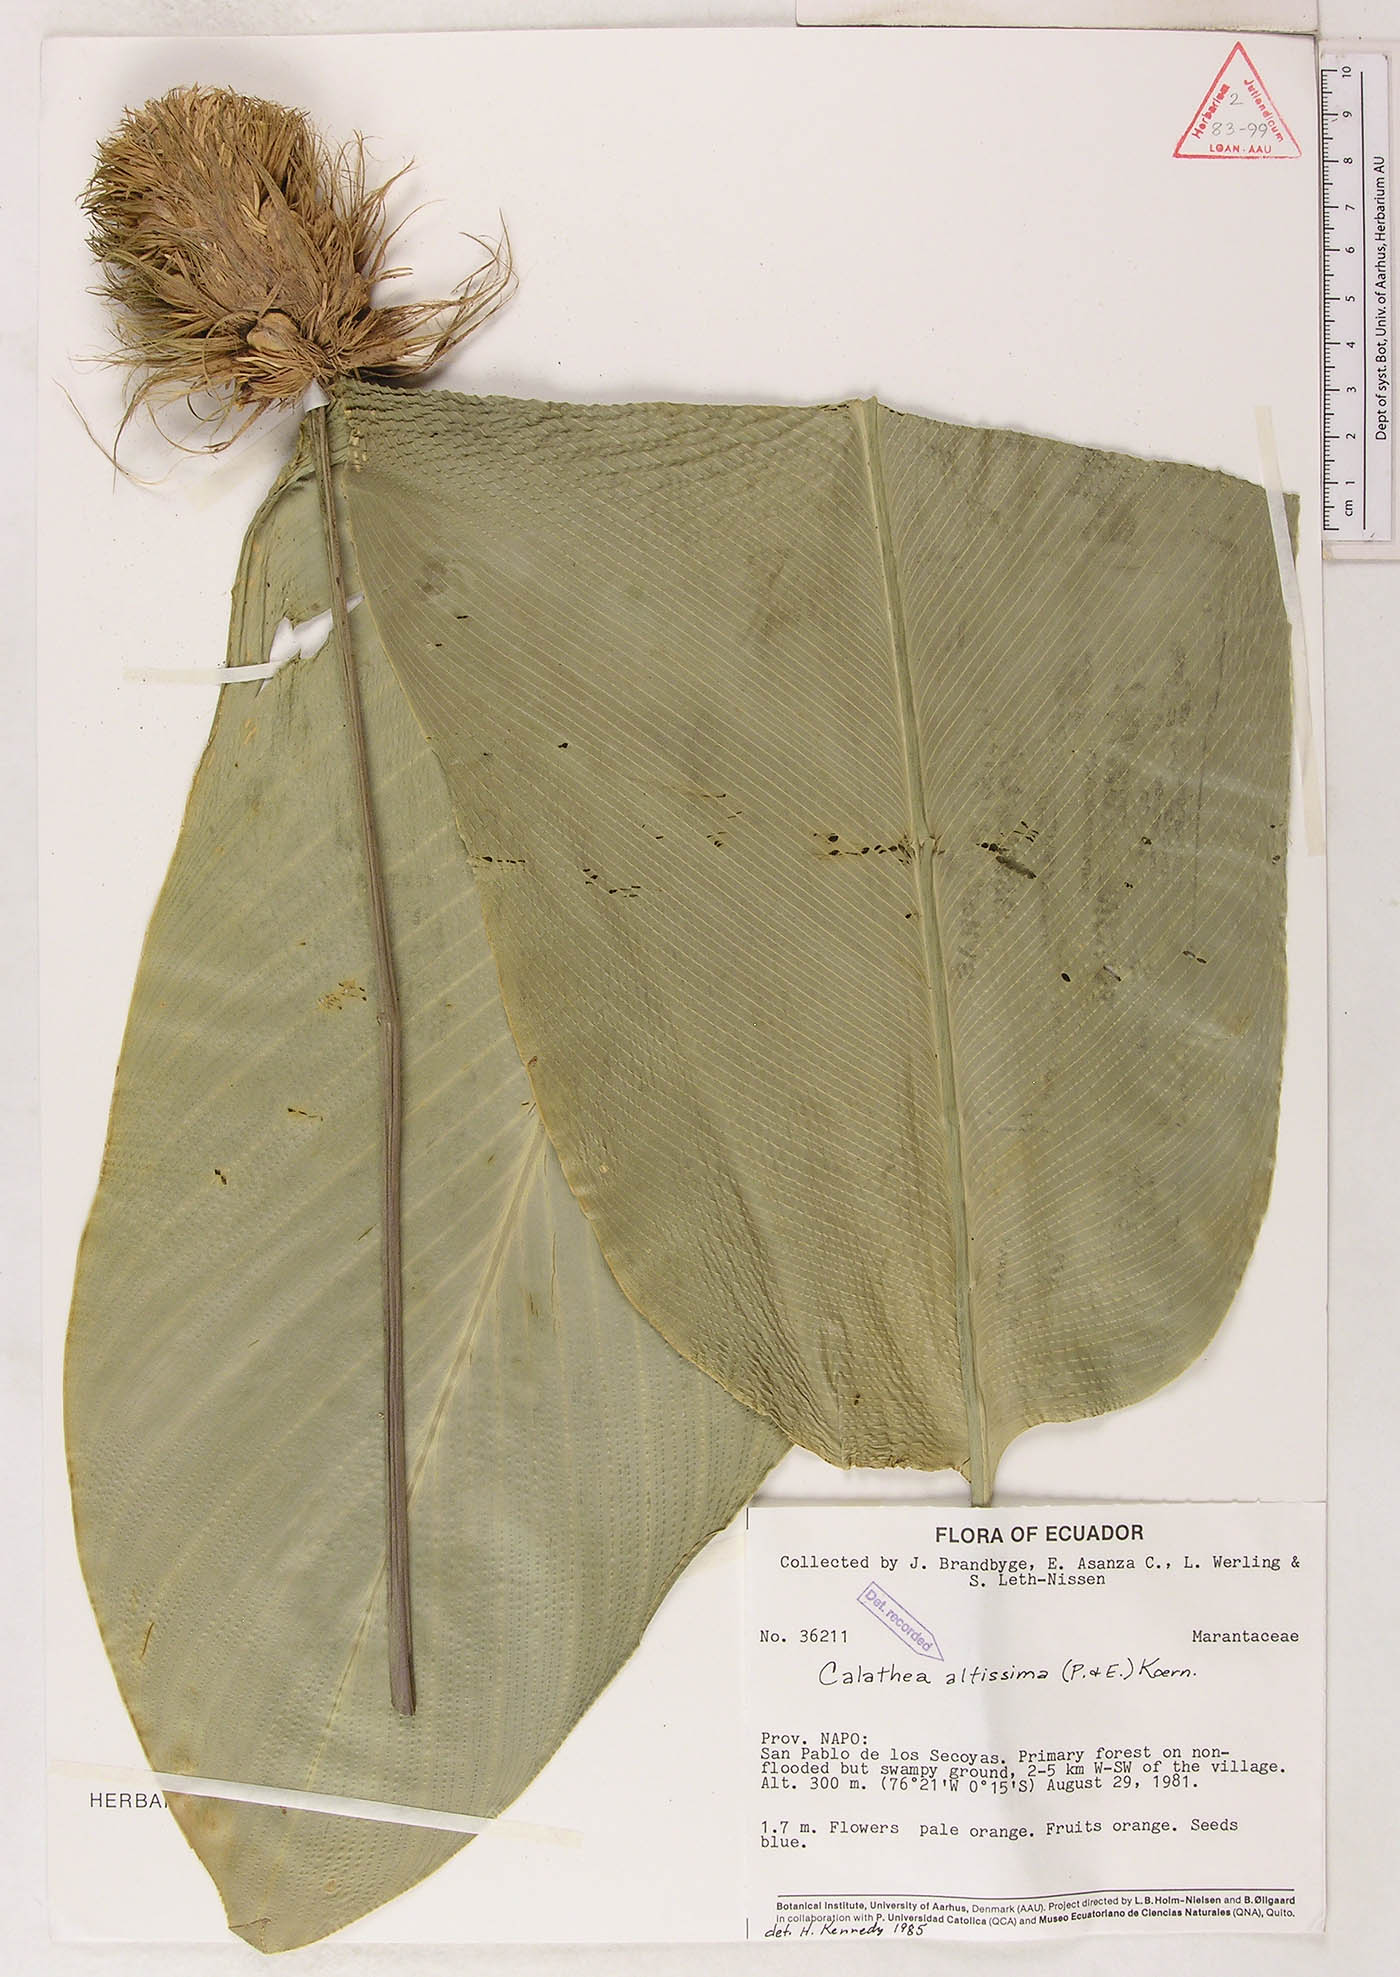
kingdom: Plantae
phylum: Tracheophyta
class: Liliopsida
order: Zingiberales
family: Marantaceae
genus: Goeppertia
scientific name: Goeppertia altissima
